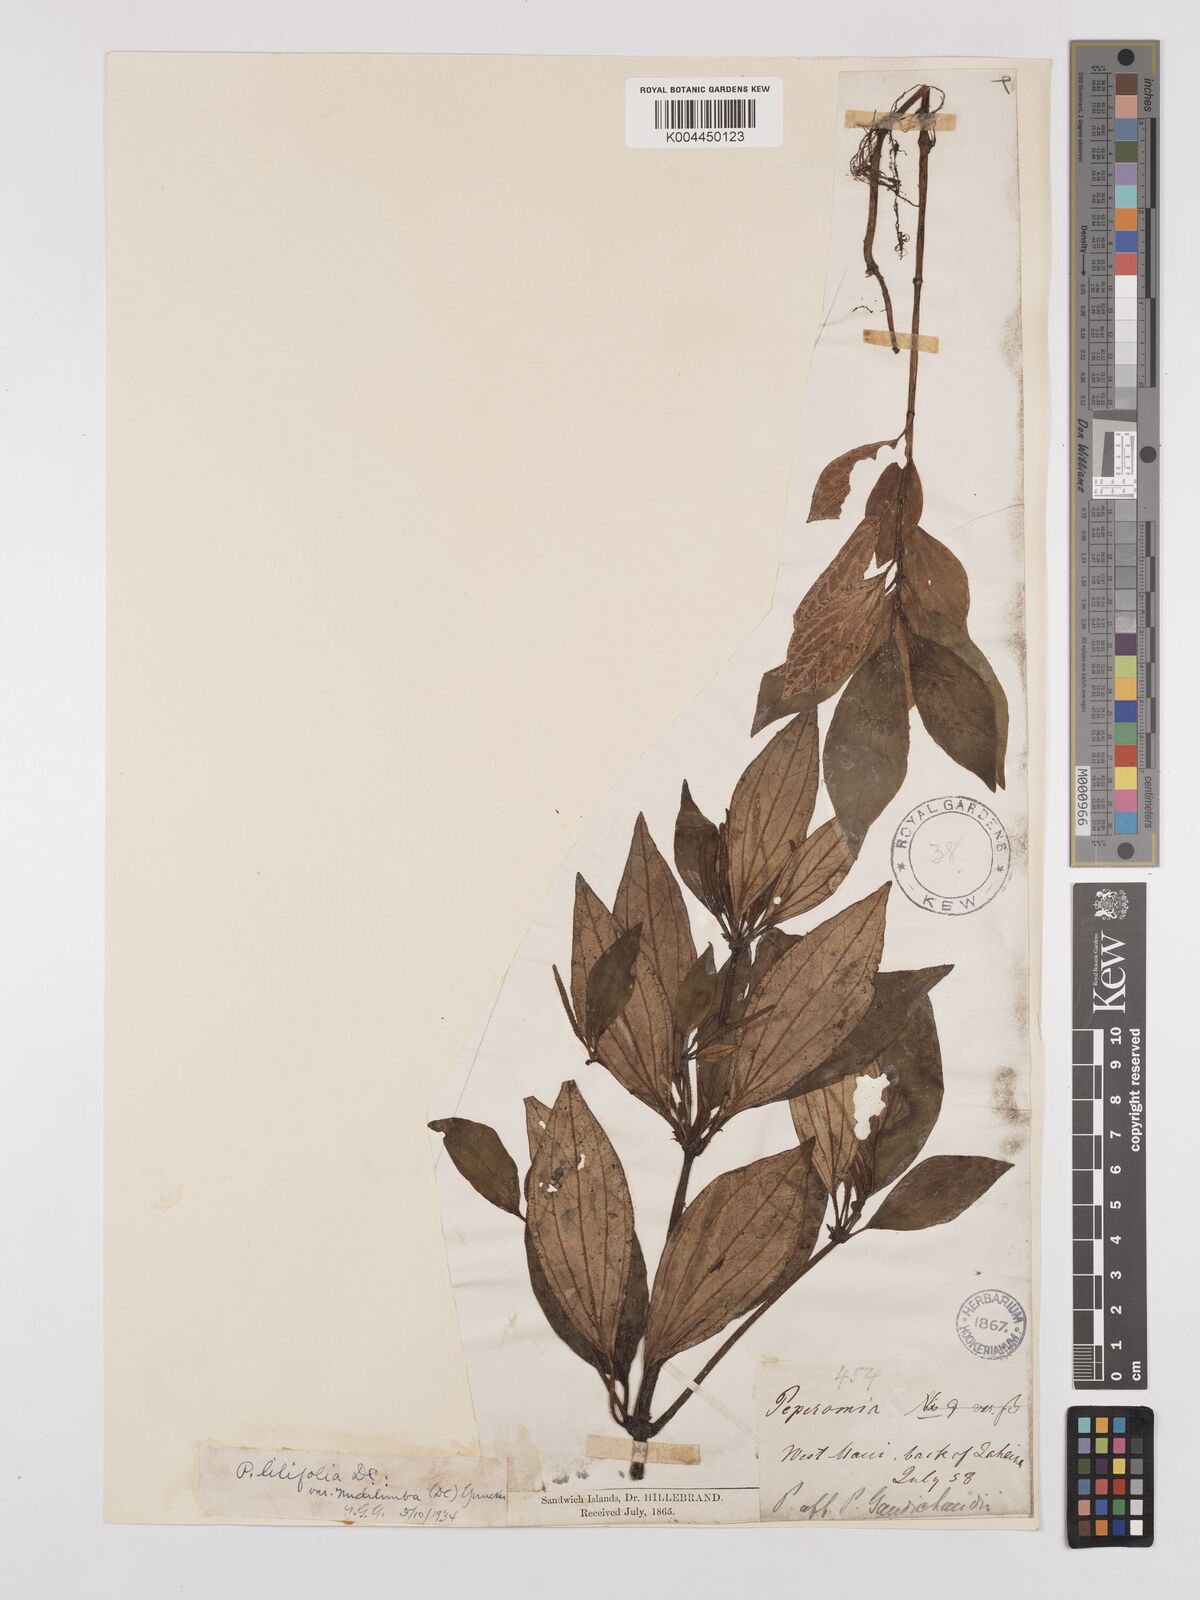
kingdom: Plantae
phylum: Tracheophyta
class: Magnoliopsida
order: Piperales
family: Piperaceae
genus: Peperomia
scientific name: Peperomia macraeana
